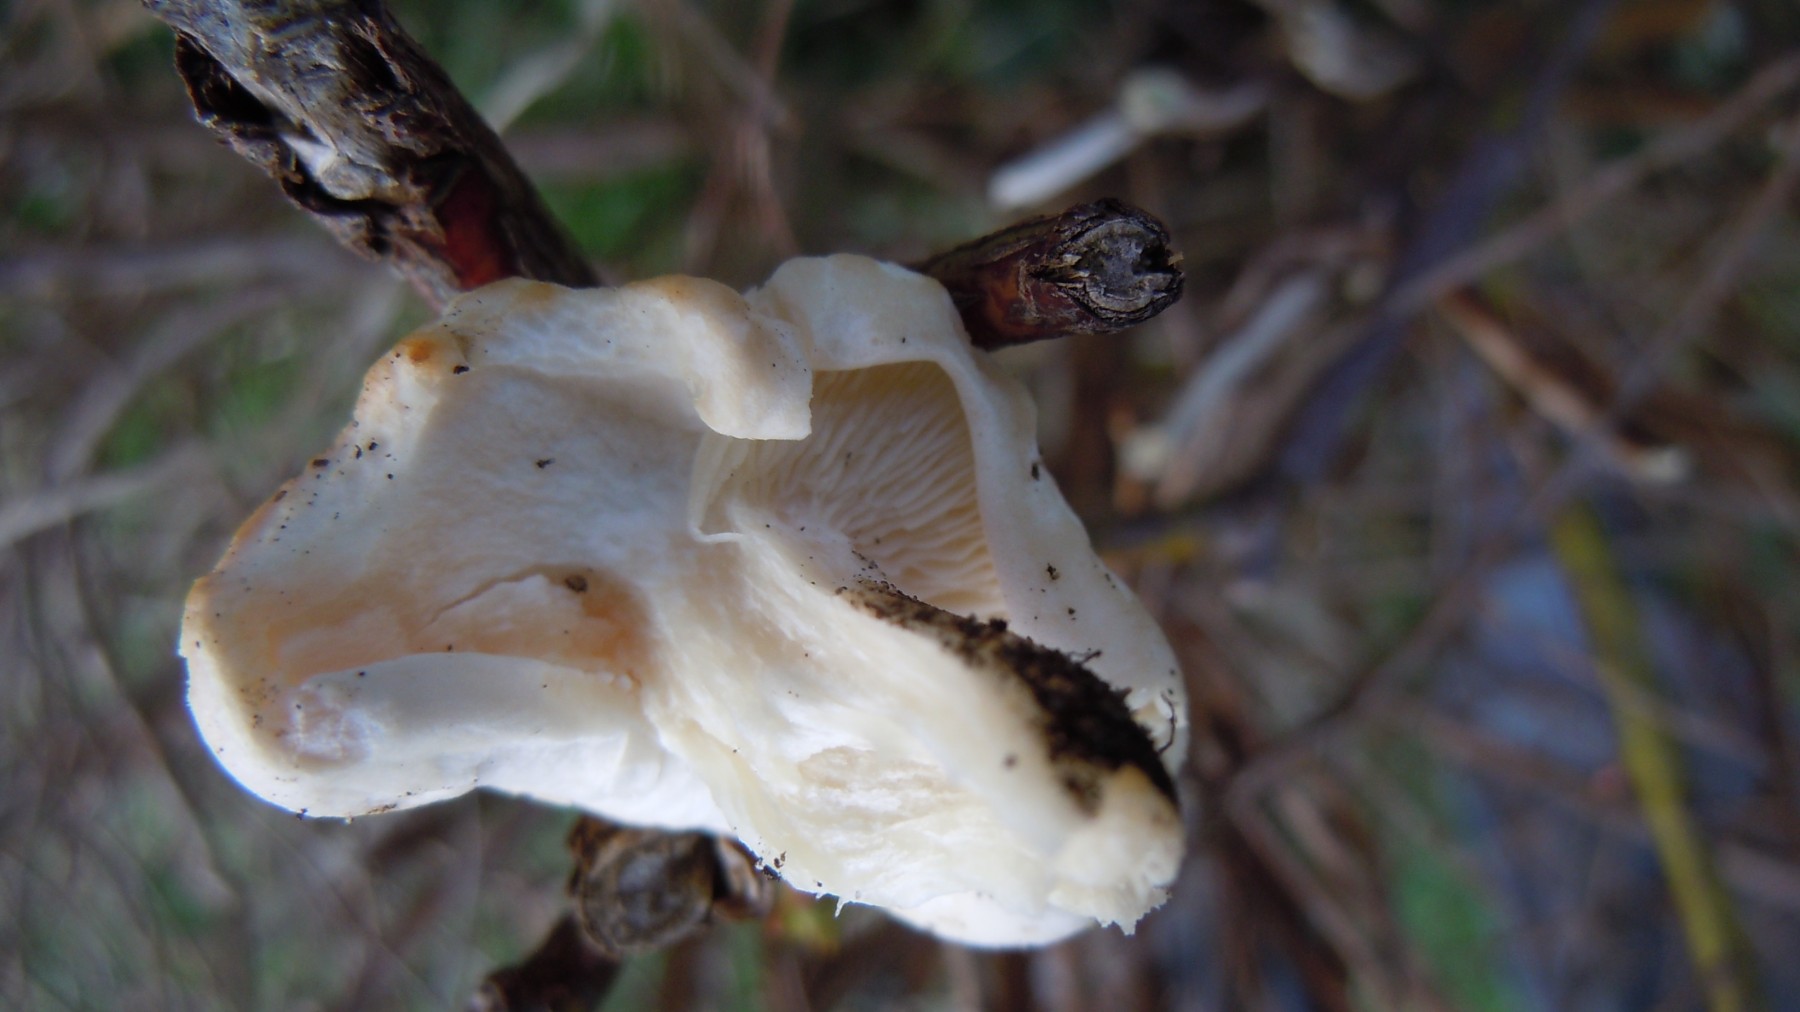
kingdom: Fungi
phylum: Basidiomycota
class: Agaricomycetes
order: Agaricales
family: Lyophyllaceae
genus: Calocybe
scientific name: Calocybe gambosa
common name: vårmusseron
